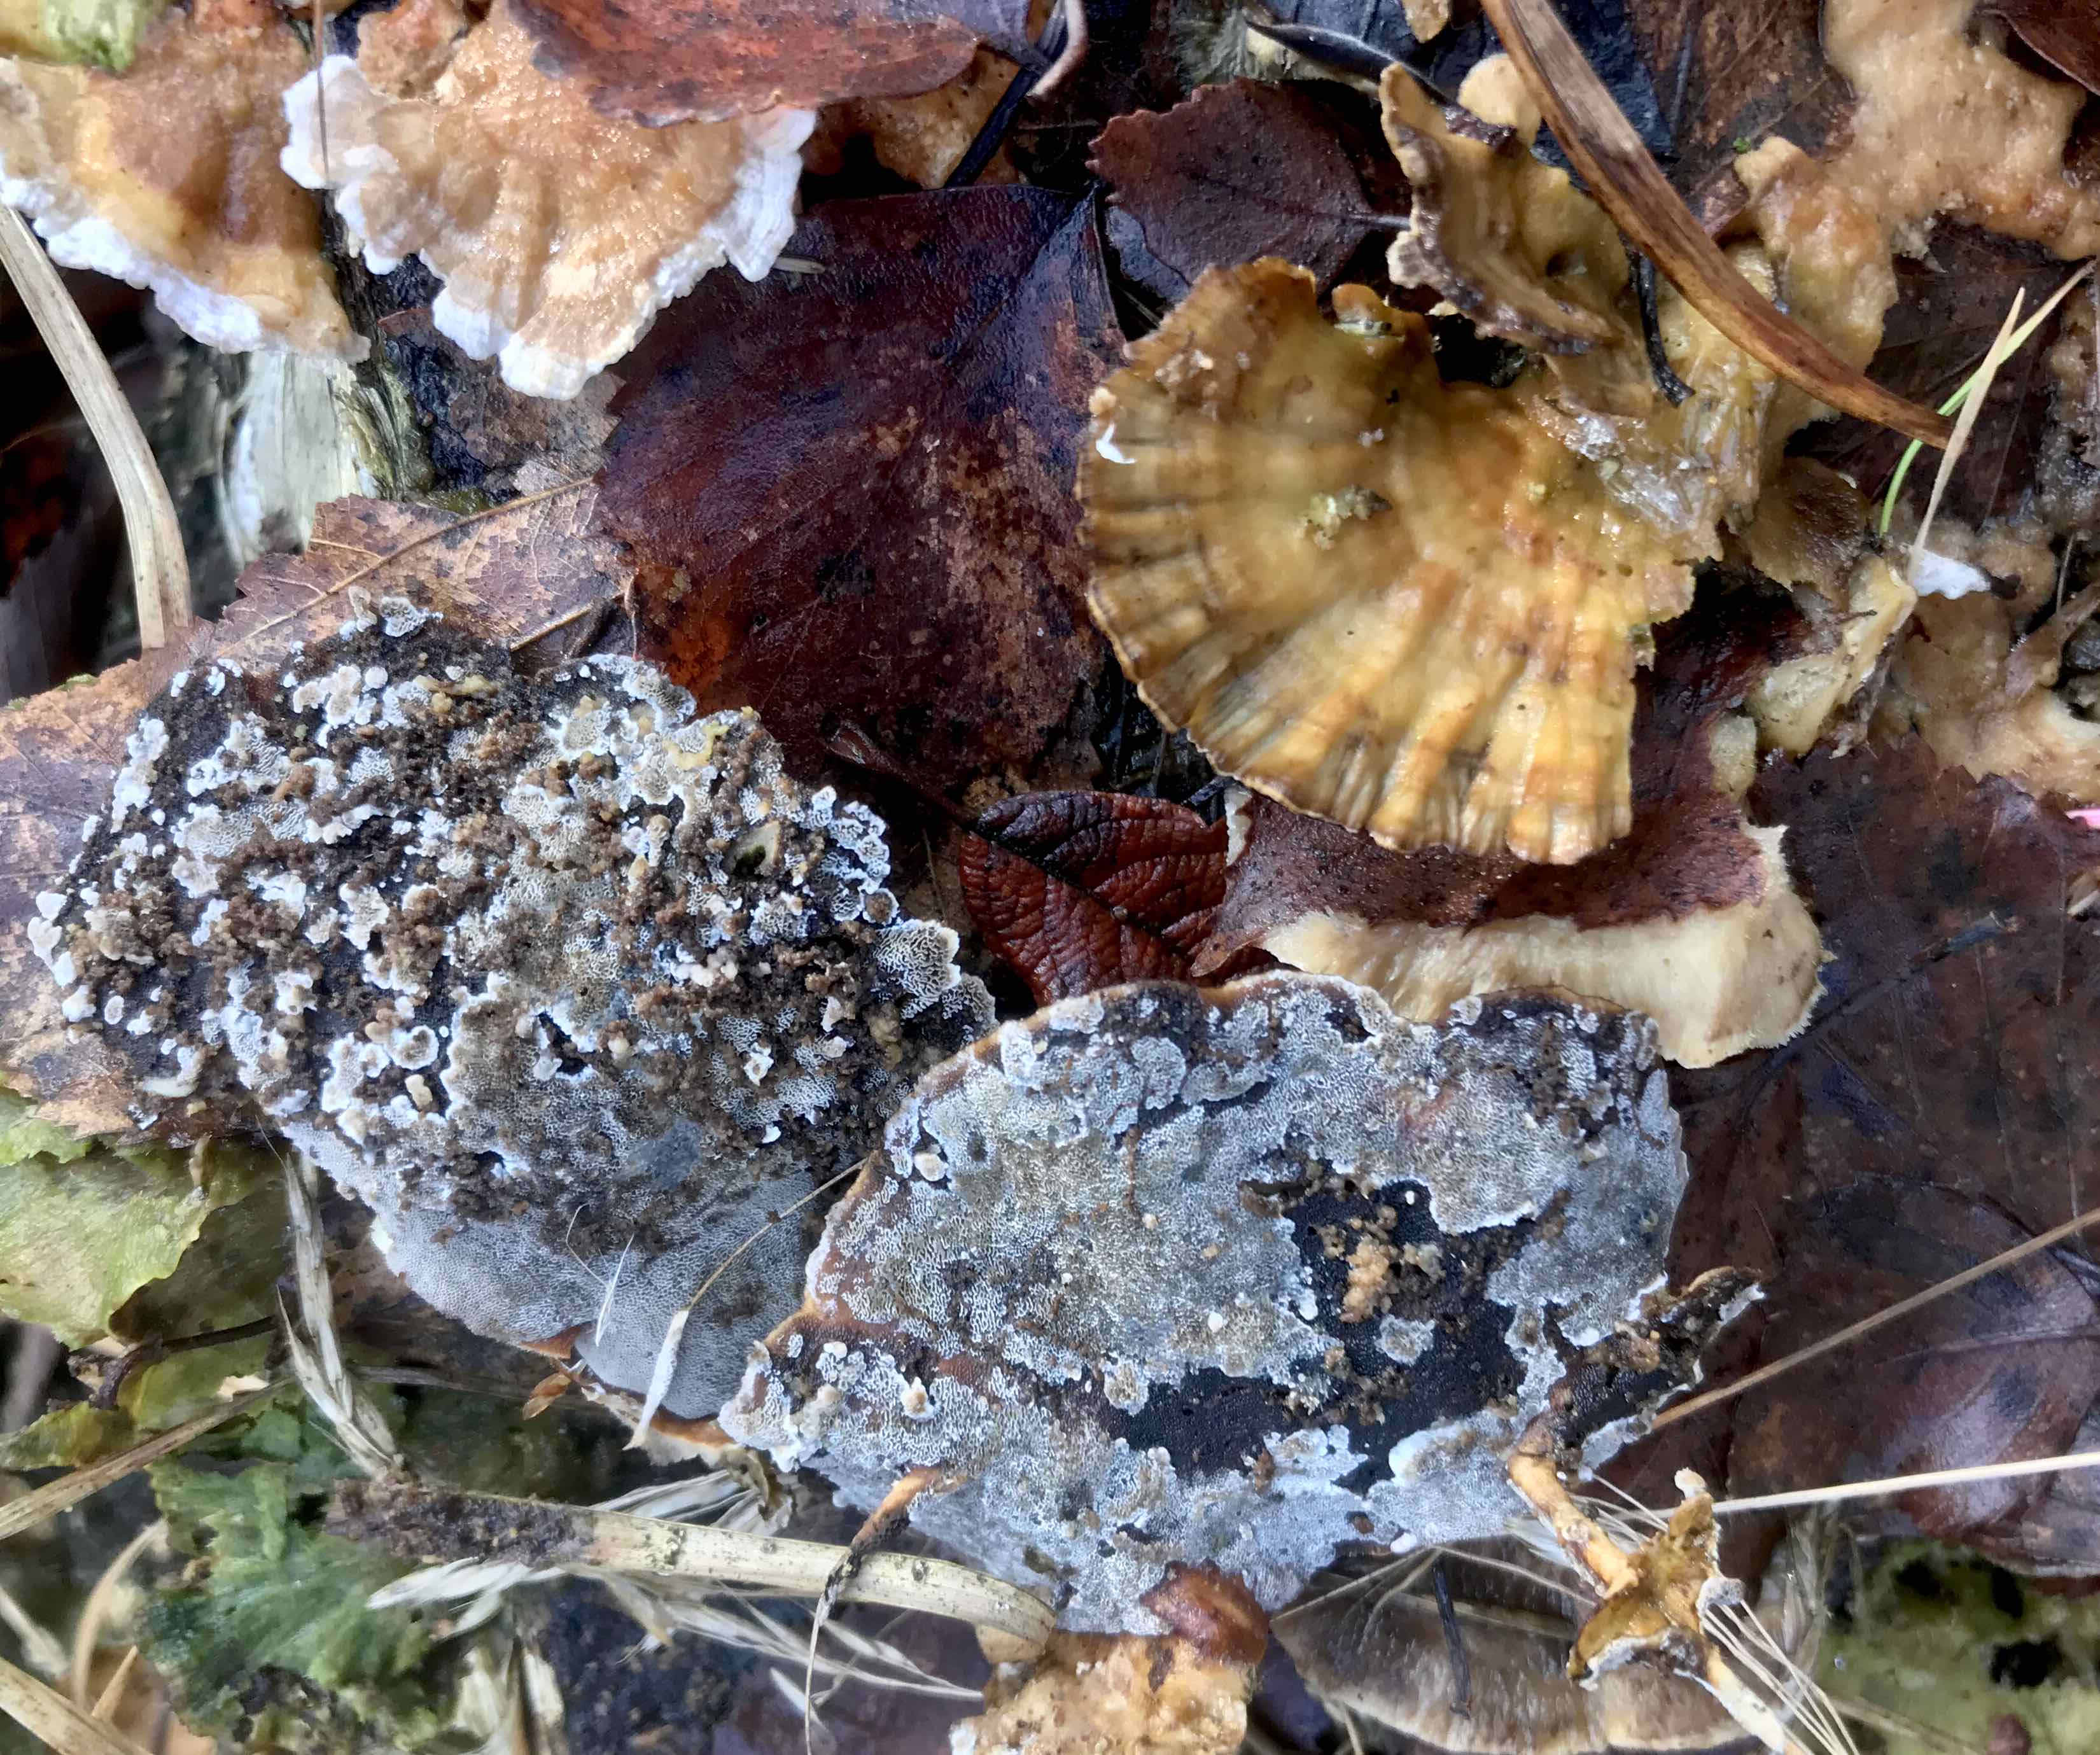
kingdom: Fungi
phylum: Basidiomycota
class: Agaricomycetes
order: Polyporales
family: Phanerochaetaceae
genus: Bjerkandera
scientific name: Bjerkandera adusta
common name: sveden sodporesvamp
